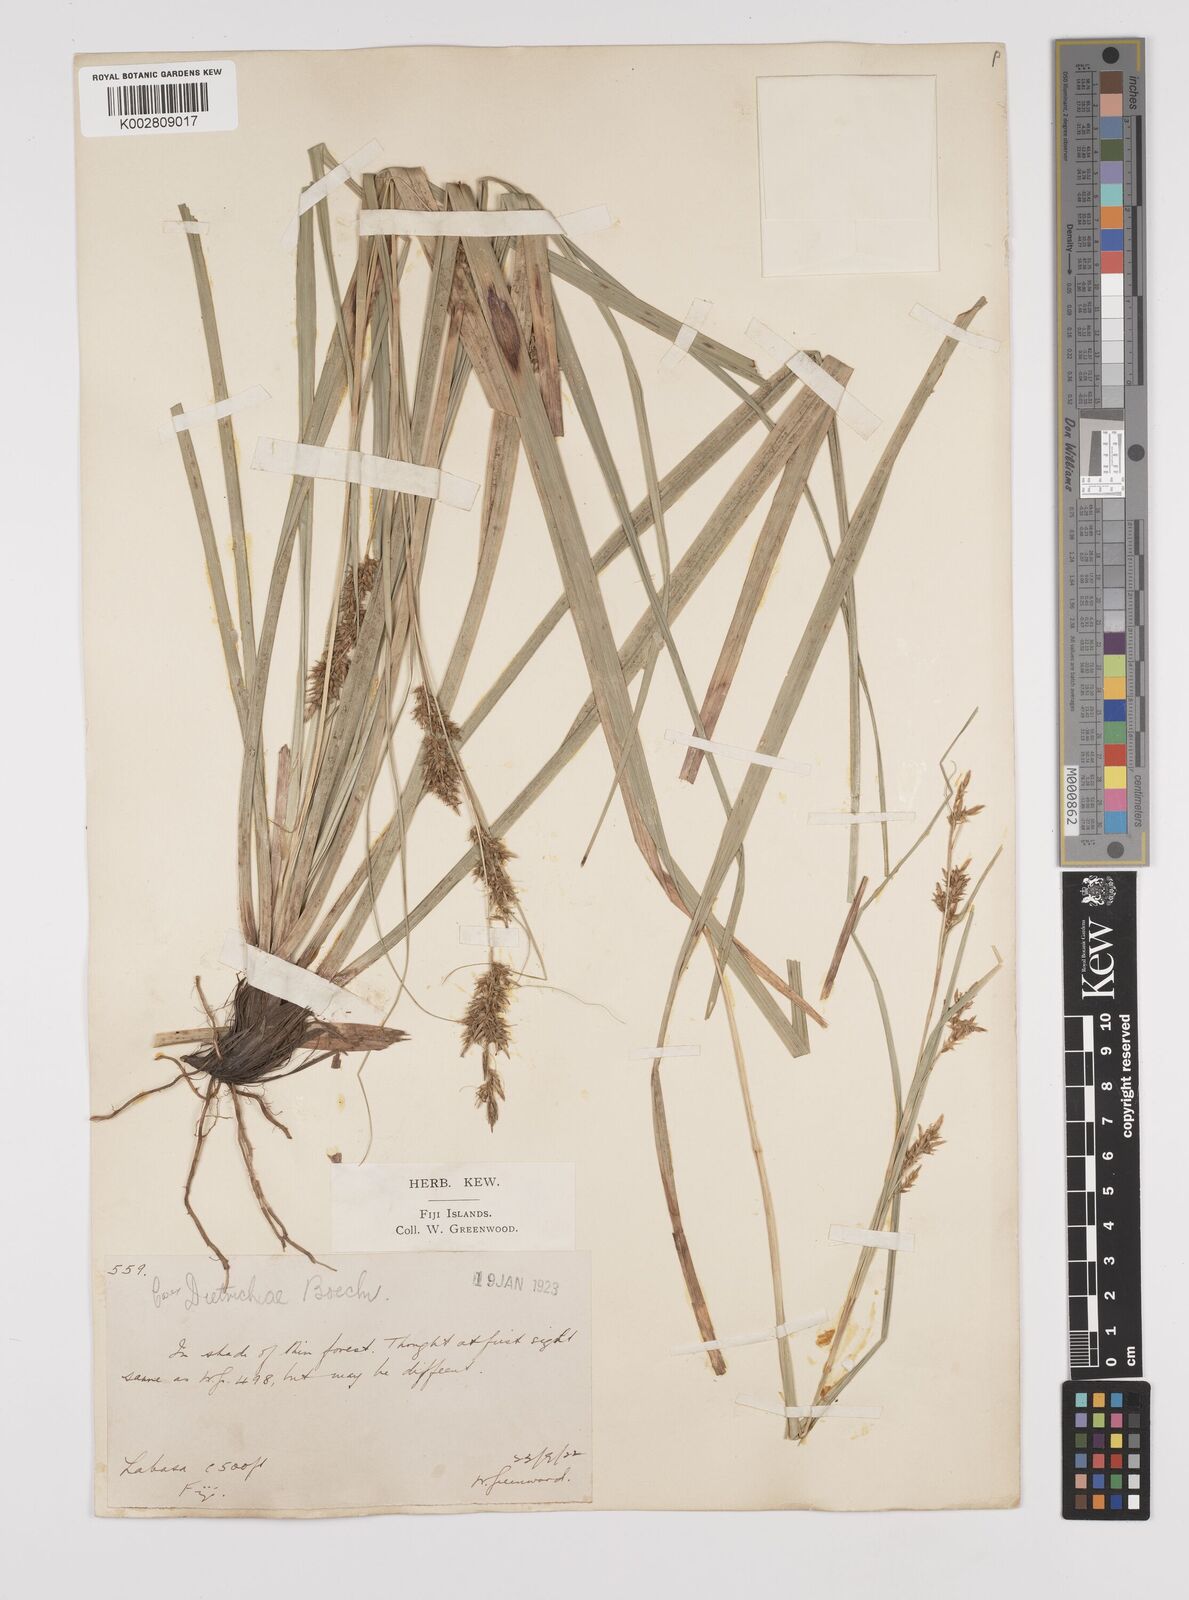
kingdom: Plantae
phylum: Tracheophyta
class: Liliopsida
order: Poales
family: Cyperaceae
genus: Carex
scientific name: Carex indica
